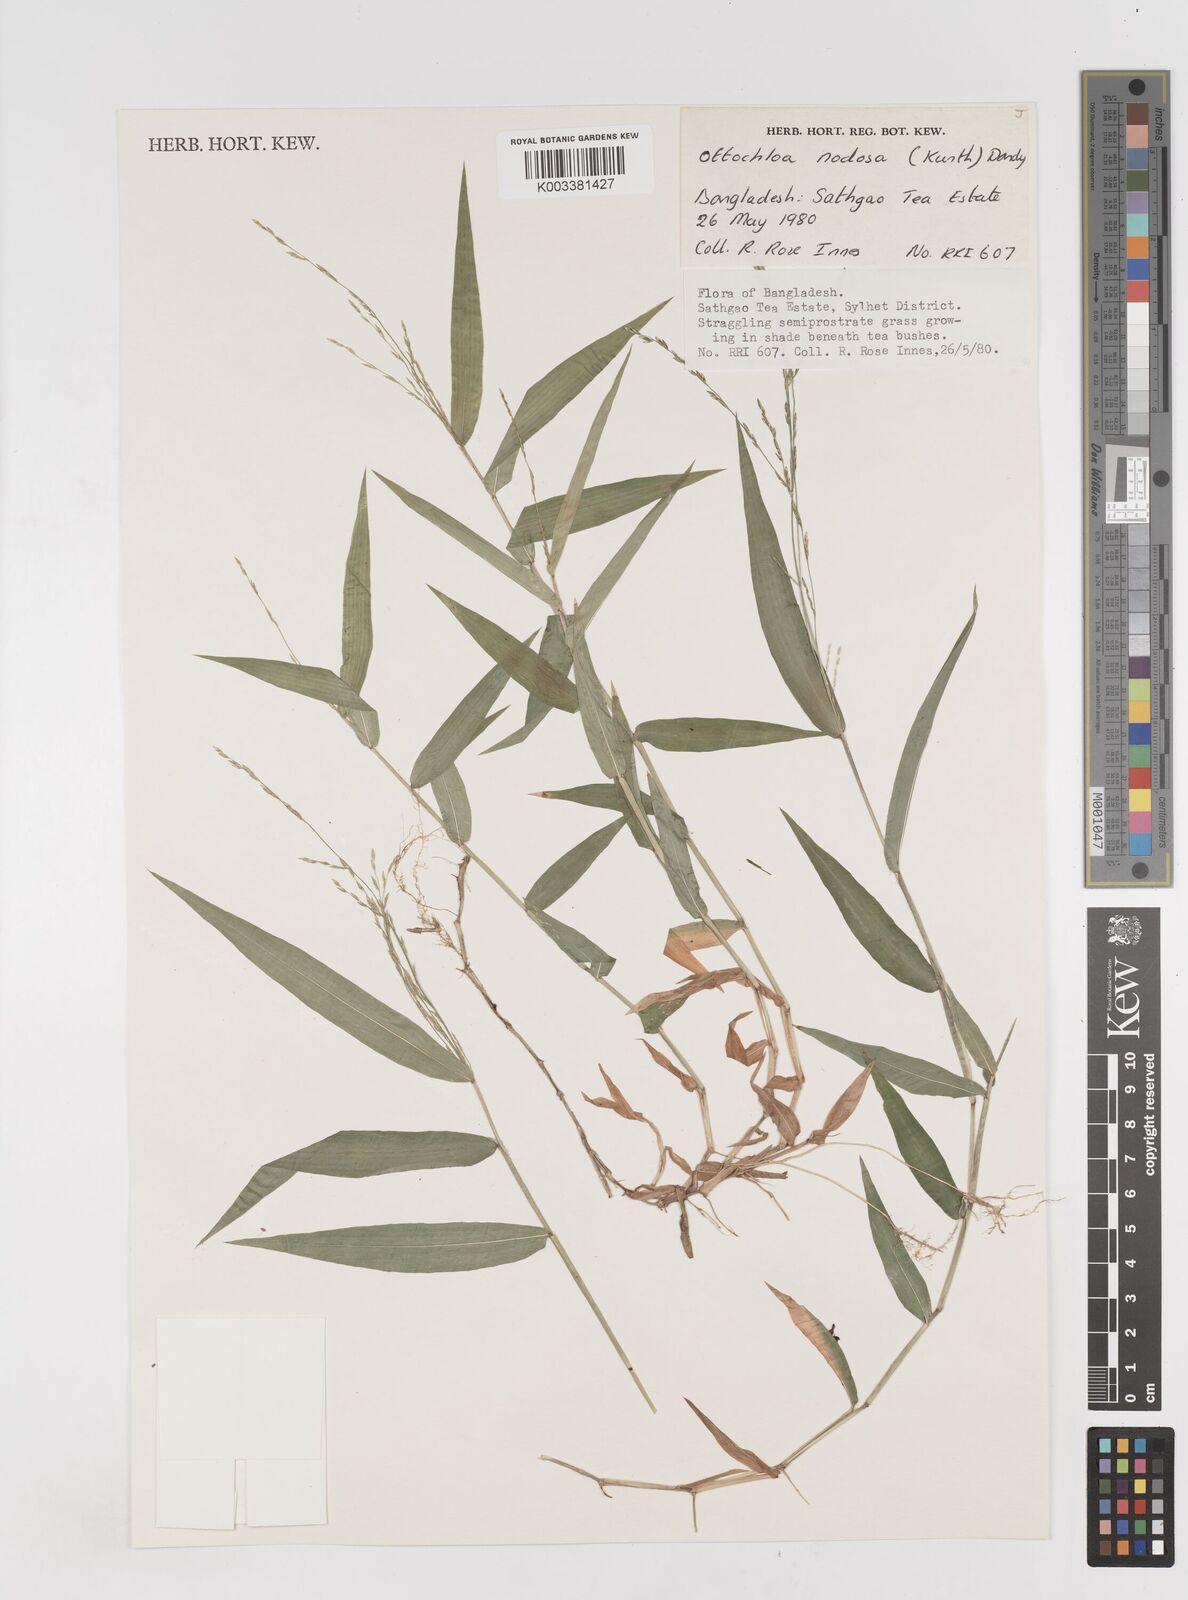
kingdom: Plantae
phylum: Tracheophyta
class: Liliopsida
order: Poales
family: Poaceae
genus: Ottochloa
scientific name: Ottochloa
